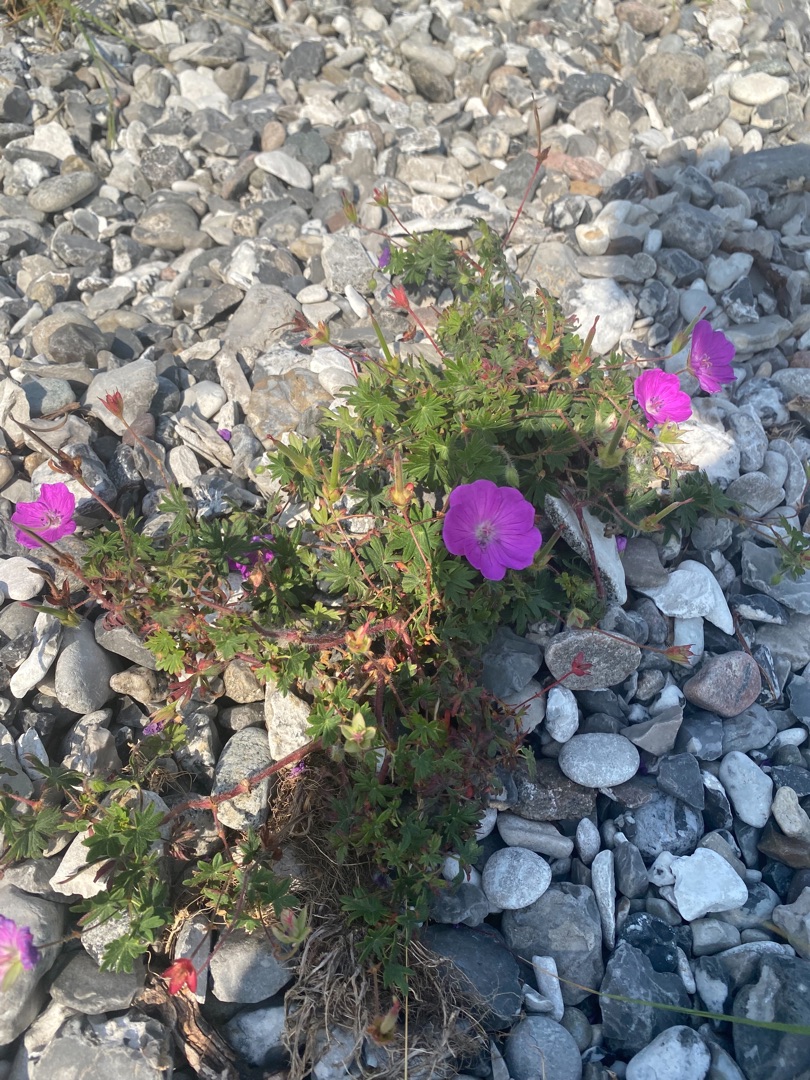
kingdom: Plantae
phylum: Tracheophyta
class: Magnoliopsida
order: Geraniales
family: Geraniaceae
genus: Geranium
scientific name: Geranium sanguineum
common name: Blodrød storkenæb
